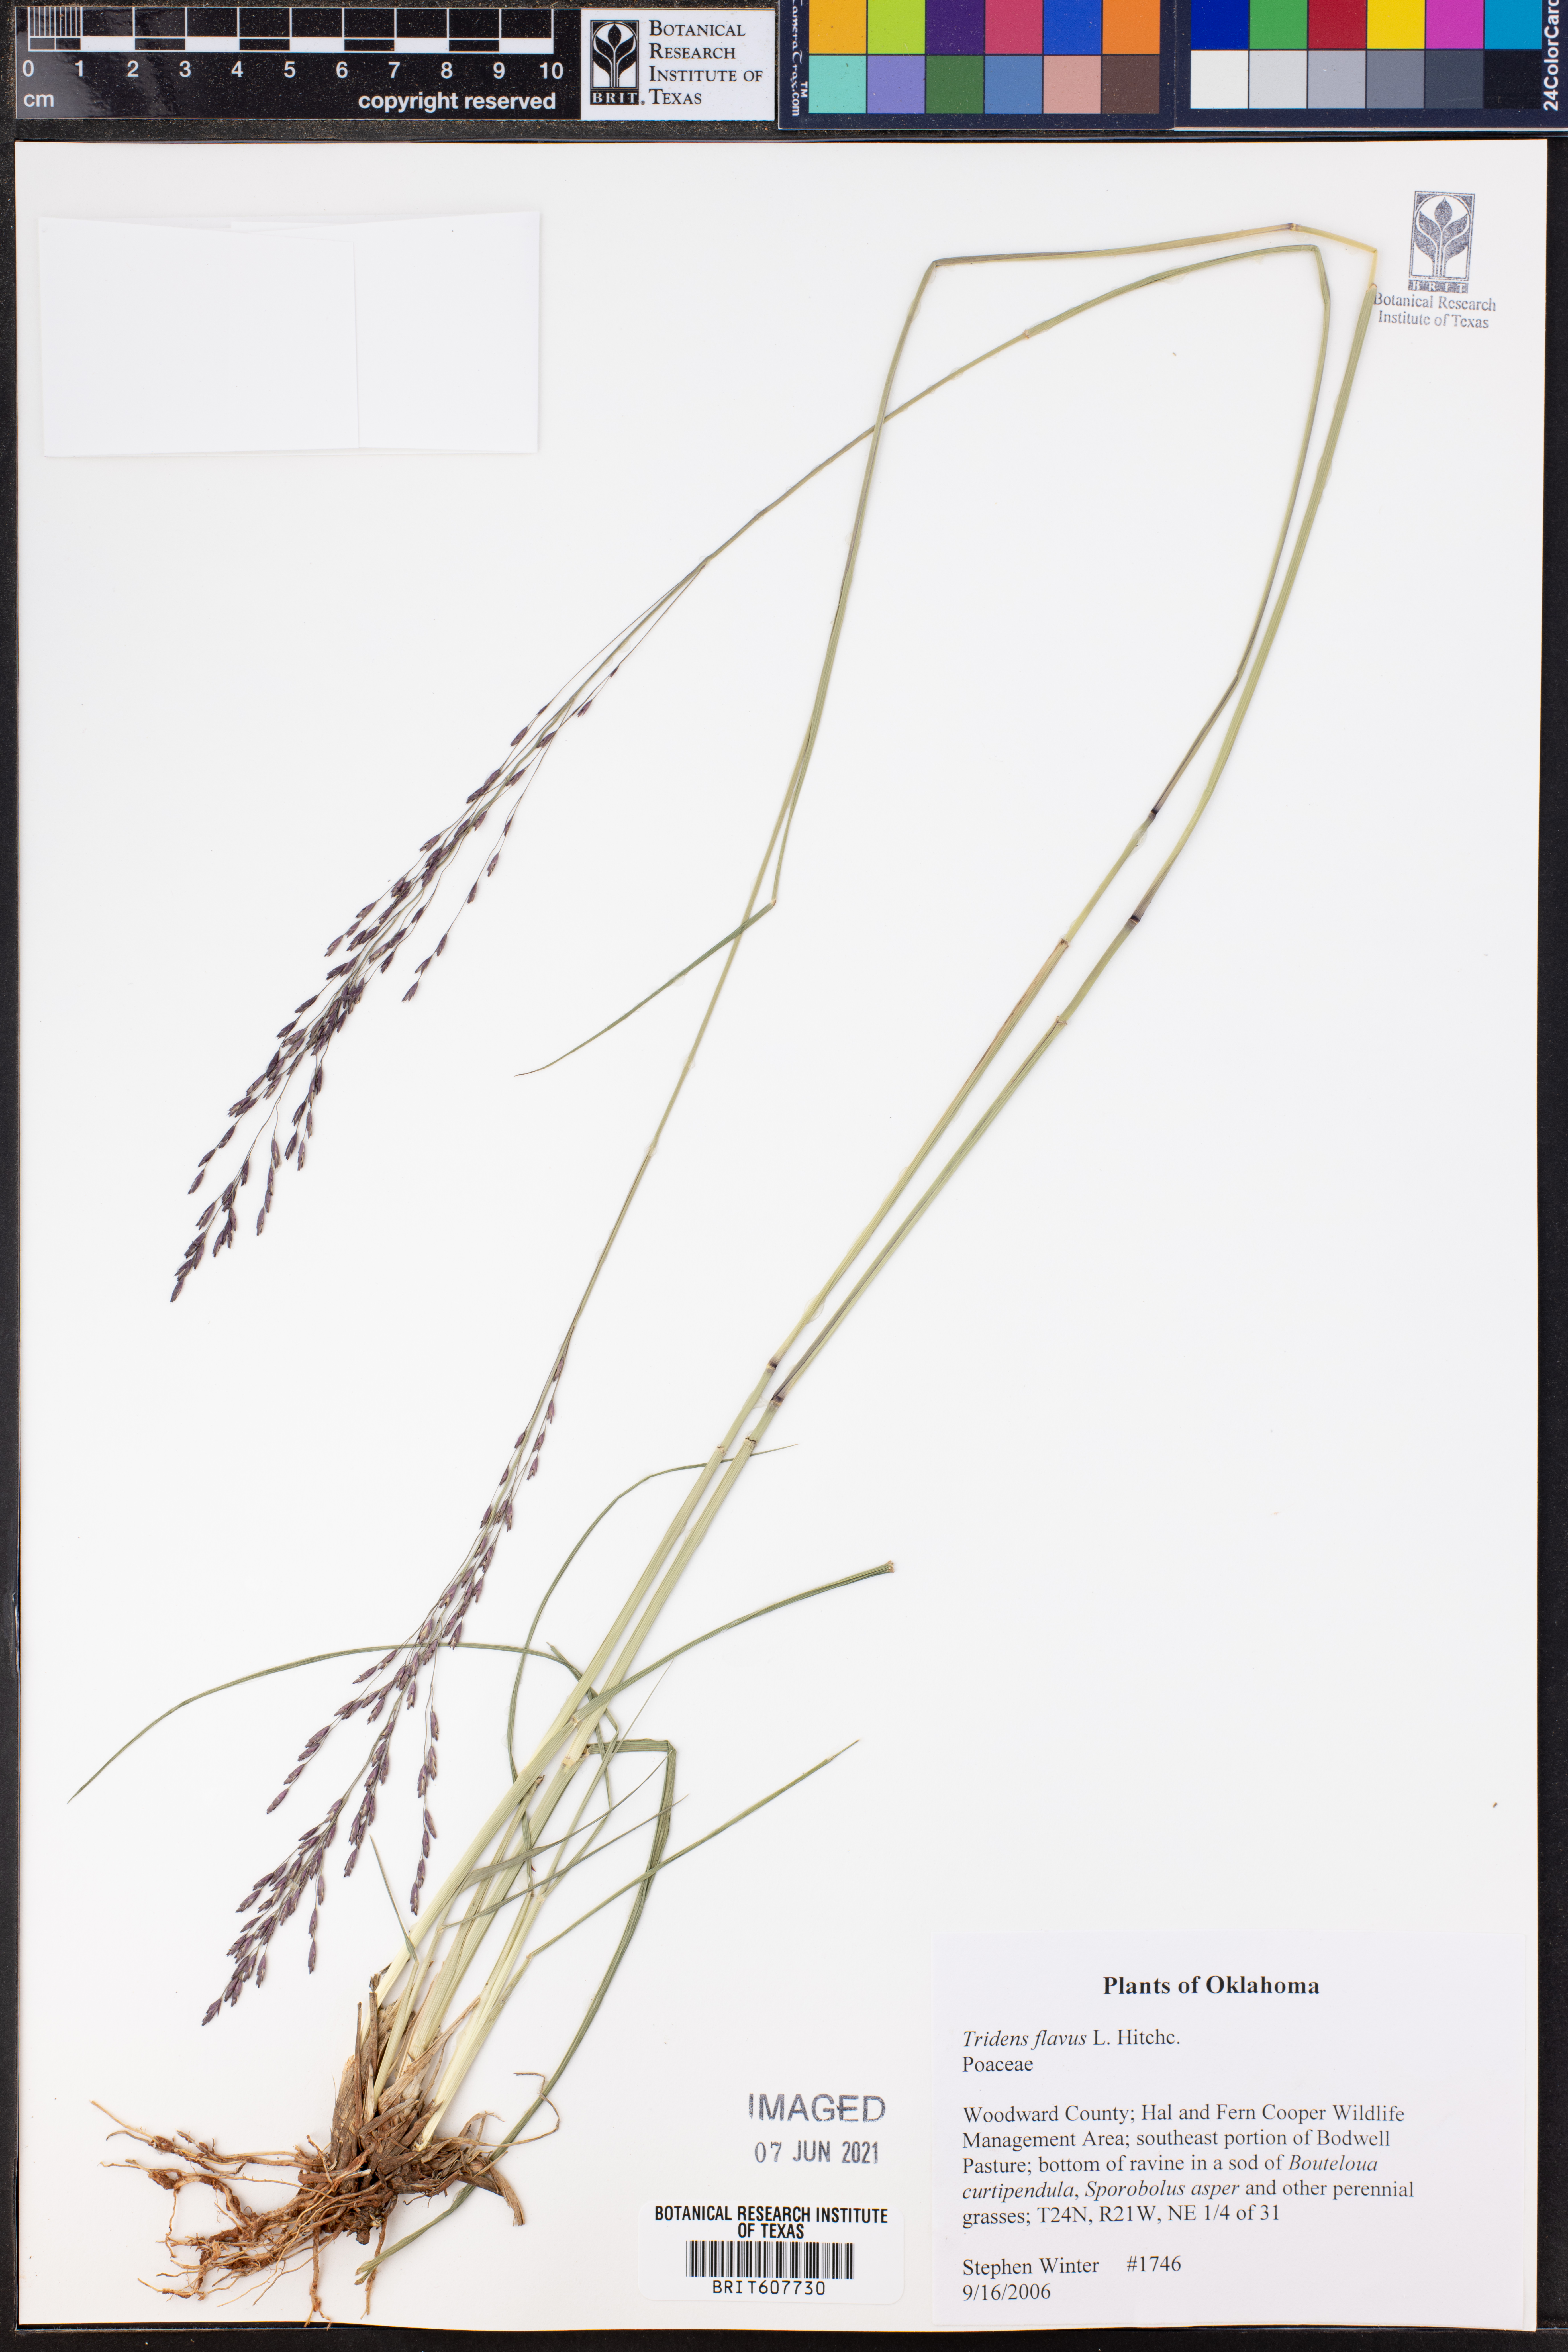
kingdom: Plantae
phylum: Tracheophyta
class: Liliopsida
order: Poales
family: Poaceae
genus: Tridens
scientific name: Tridens flavus
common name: Purpletop
